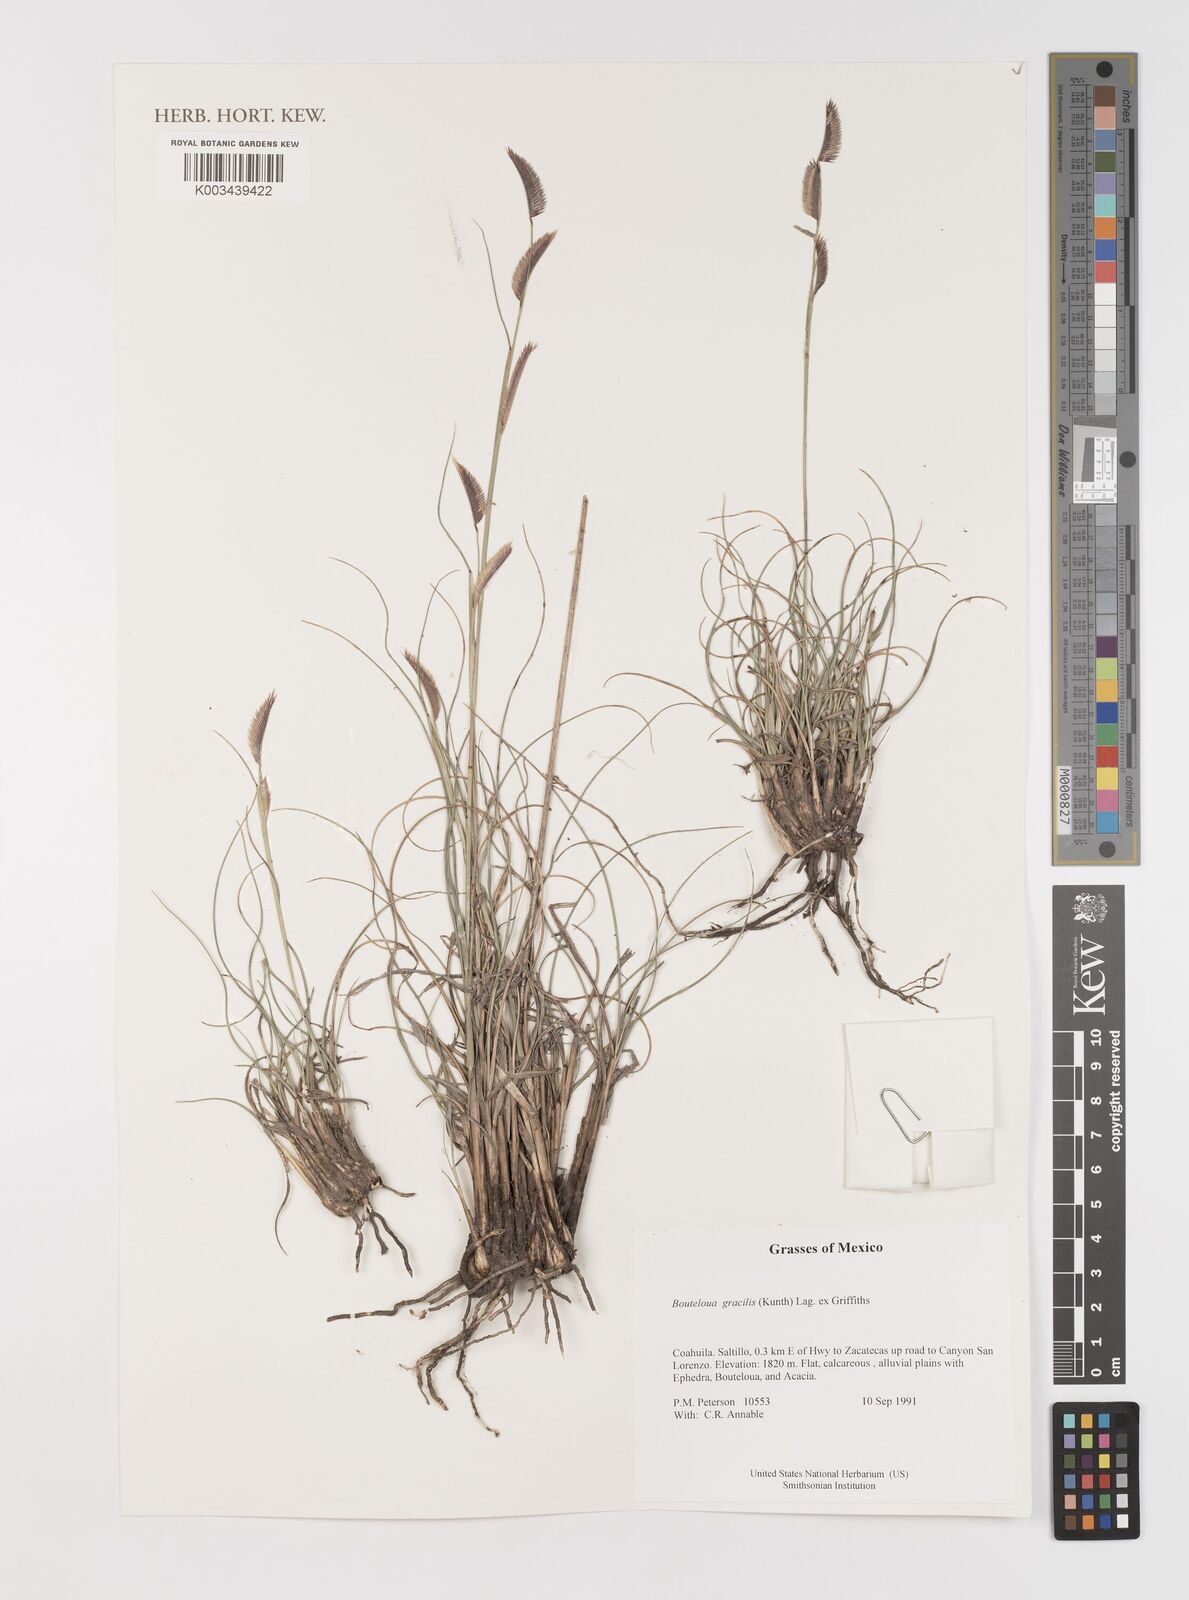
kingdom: Plantae
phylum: Tracheophyta
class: Liliopsida
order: Poales
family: Poaceae
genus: Bouteloua
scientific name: Bouteloua aristidoides
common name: Needle grama
